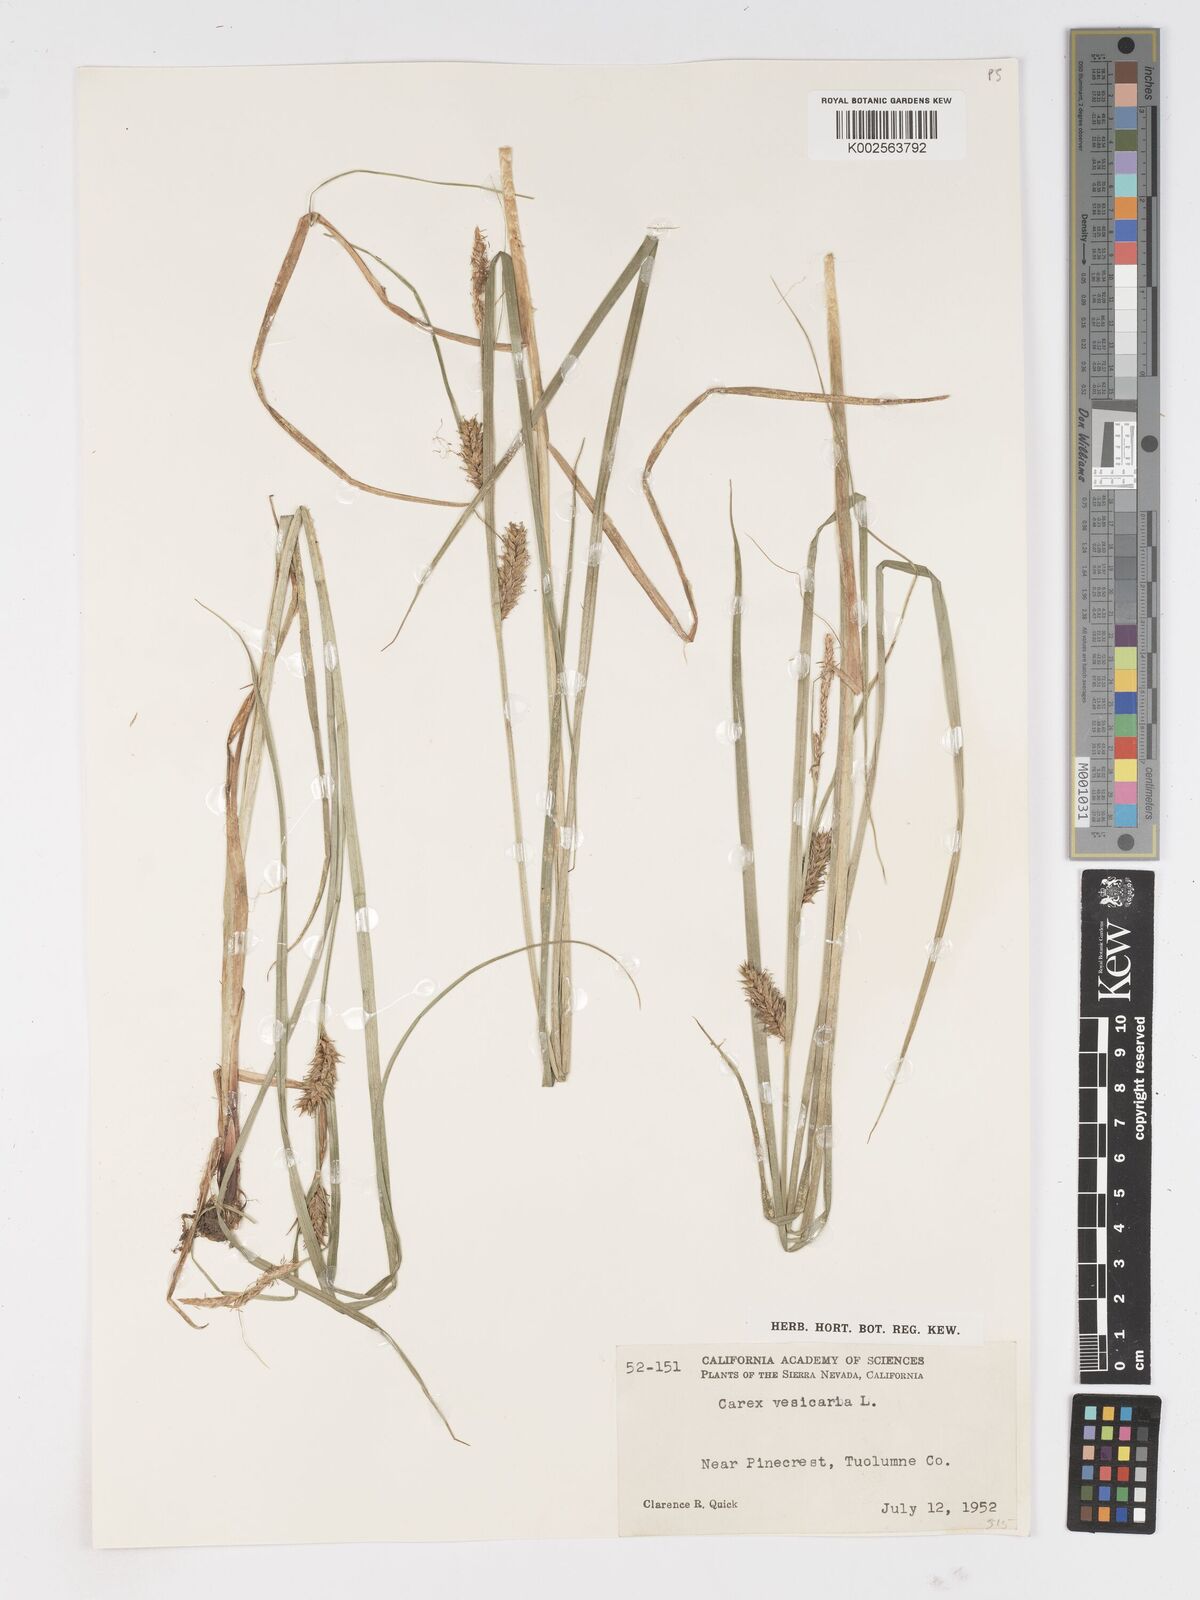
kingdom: Plantae
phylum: Tracheophyta
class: Liliopsida
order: Poales
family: Cyperaceae
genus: Carex
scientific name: Carex vesicaria
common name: Bladder-sedge
